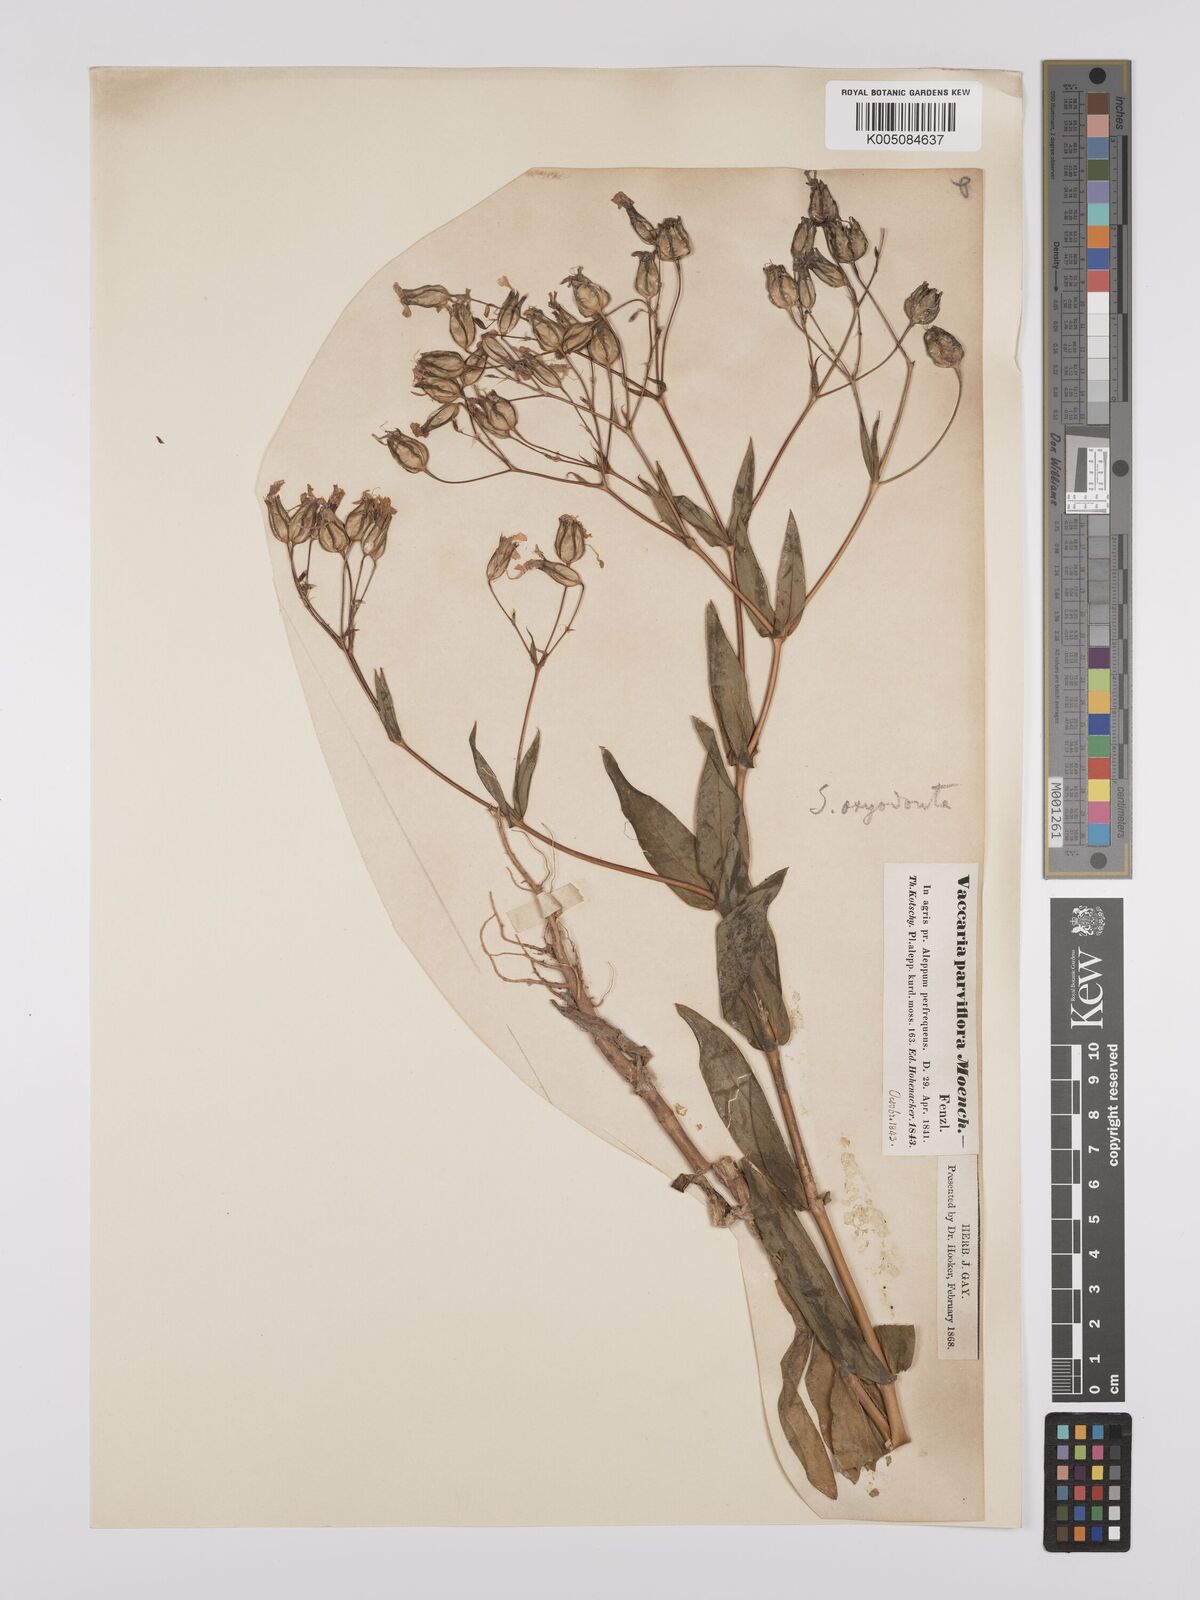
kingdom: Plantae
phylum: Tracheophyta
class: Magnoliopsida
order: Caryophyllales
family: Caryophyllaceae
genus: Gypsophila
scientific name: Gypsophila vaccaria
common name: Cow soapwort
